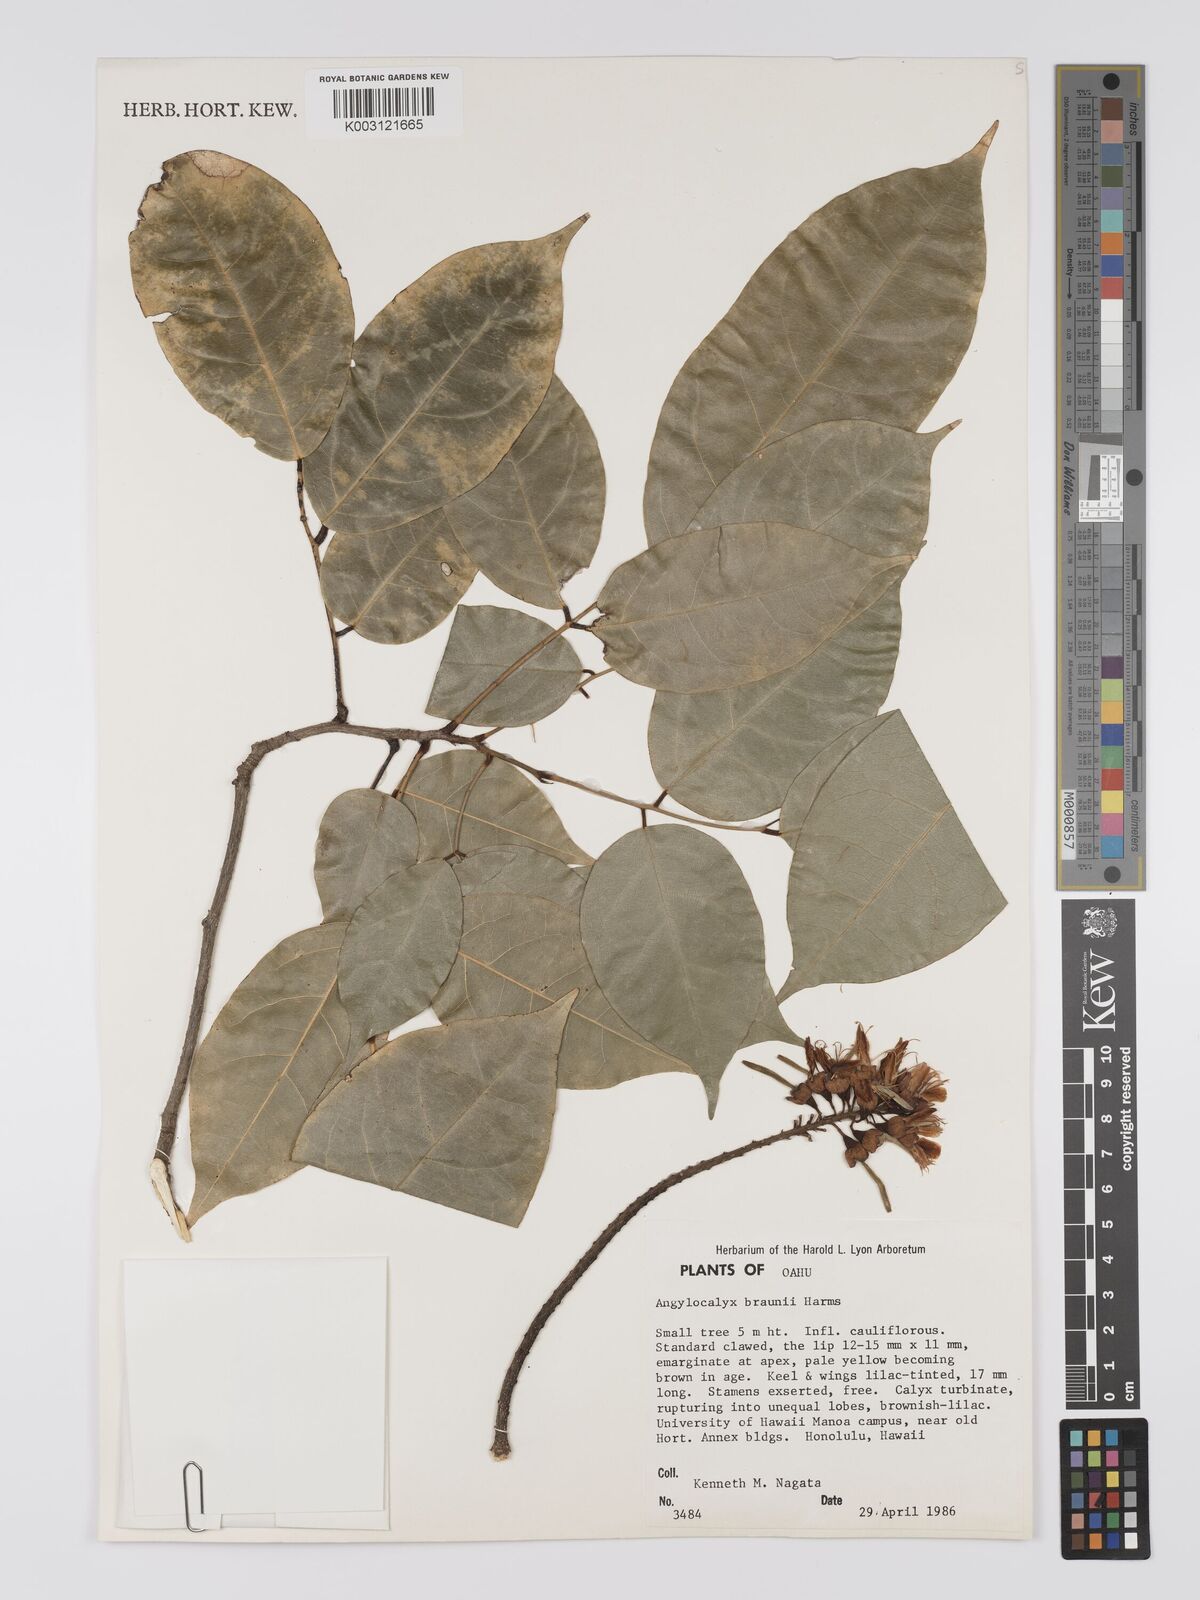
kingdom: Plantae
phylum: Tracheophyta
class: Magnoliopsida
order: Fabales
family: Fabaceae
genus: Angylocalyx
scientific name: Angylocalyx braunii
